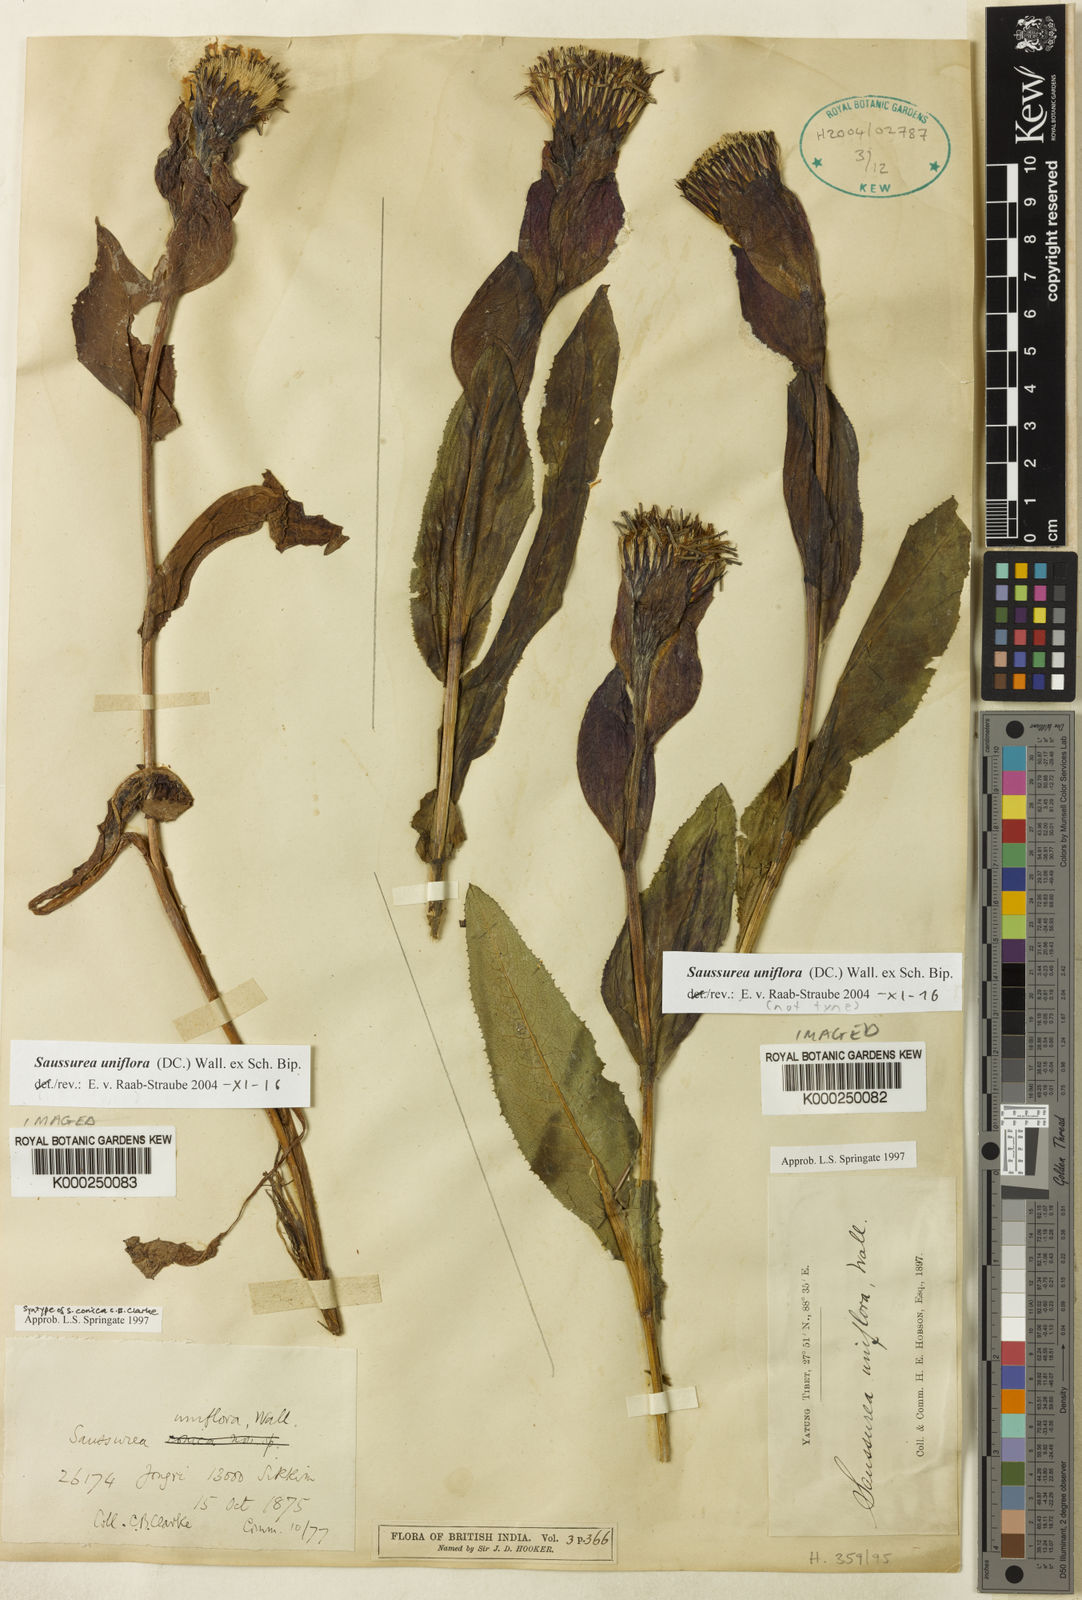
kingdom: Plantae
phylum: Tracheophyta
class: Magnoliopsida
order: Asterales
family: Asteraceae
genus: Saussurea
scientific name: Saussurea uniflora
